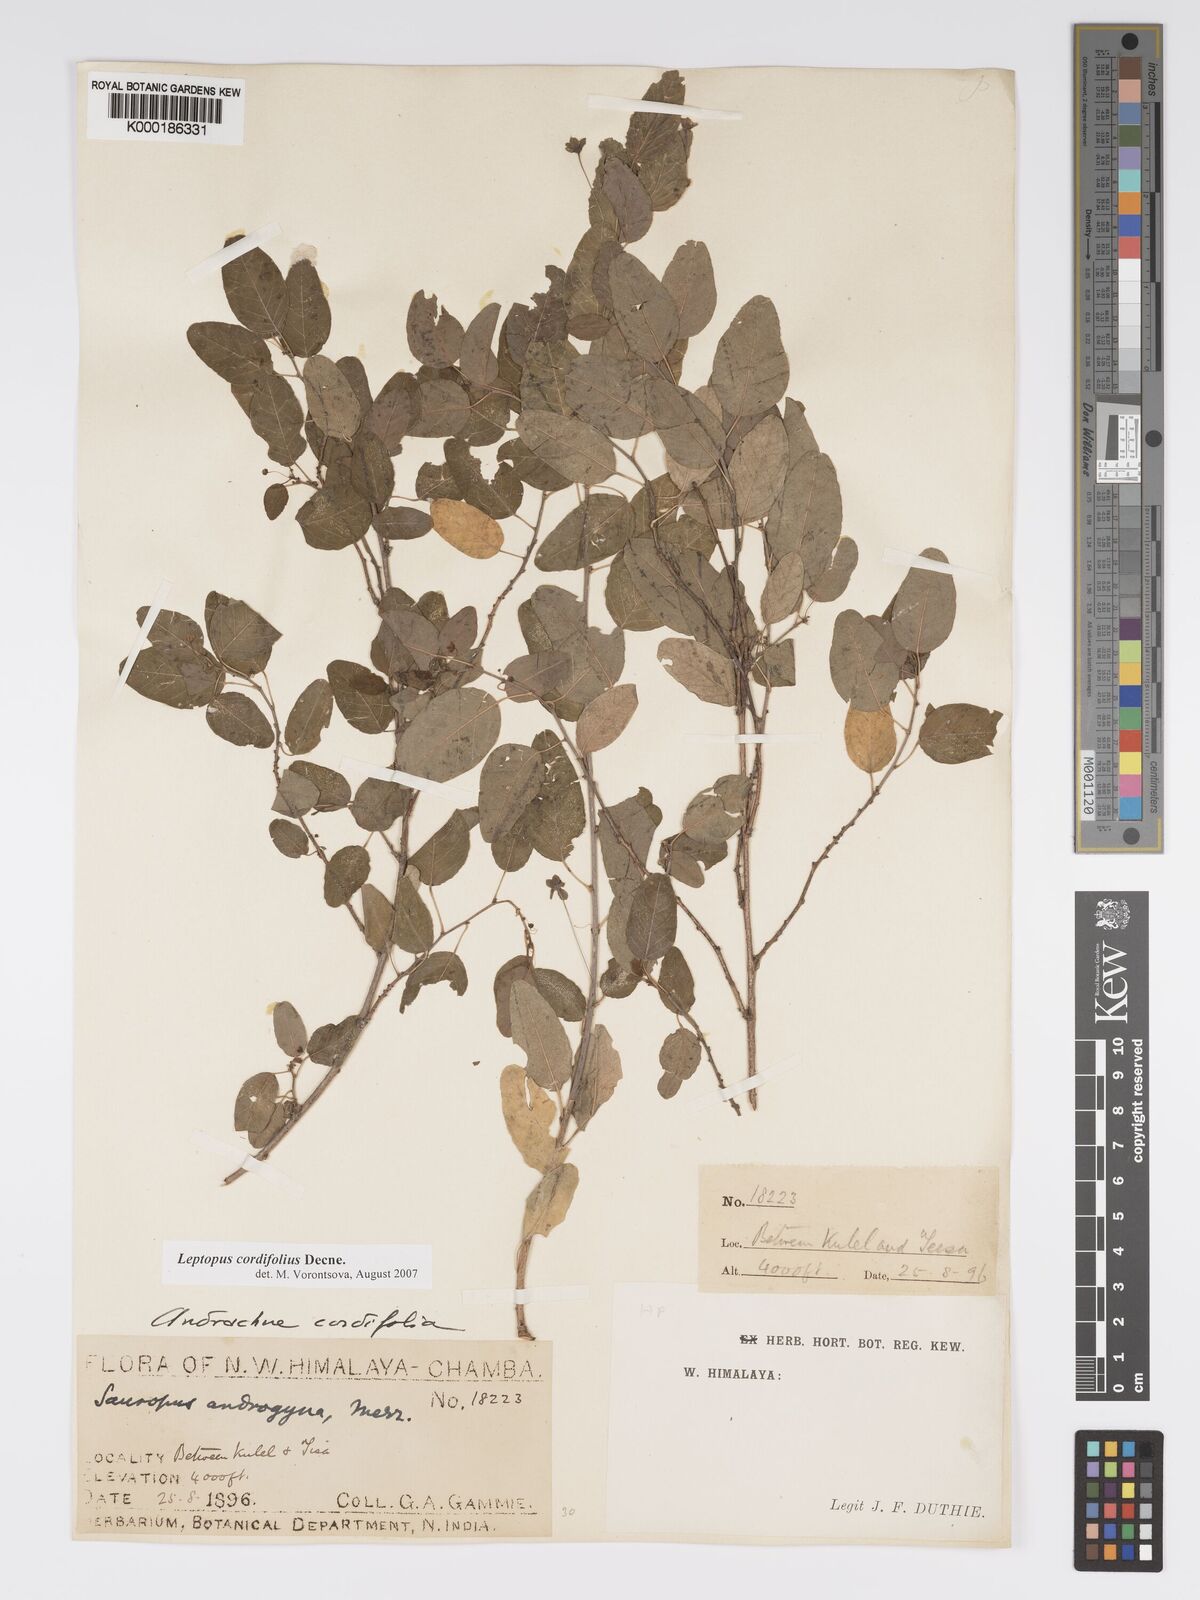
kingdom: Plantae
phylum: Tracheophyta
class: Magnoliopsida
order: Malpighiales
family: Phyllanthaceae
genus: Leptopus
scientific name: Leptopus cordifolius
